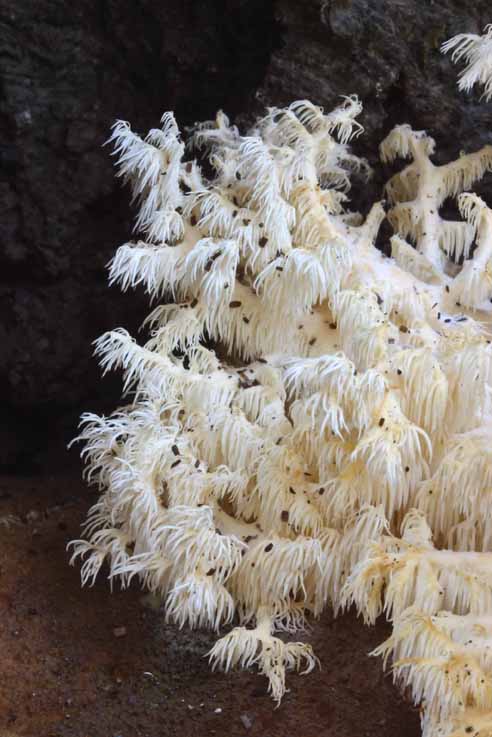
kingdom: Fungi
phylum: Basidiomycota
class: Agaricomycetes
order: Russulales
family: Hericiaceae
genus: Hericium
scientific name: Hericium coralloides
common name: koralpigsvamp
